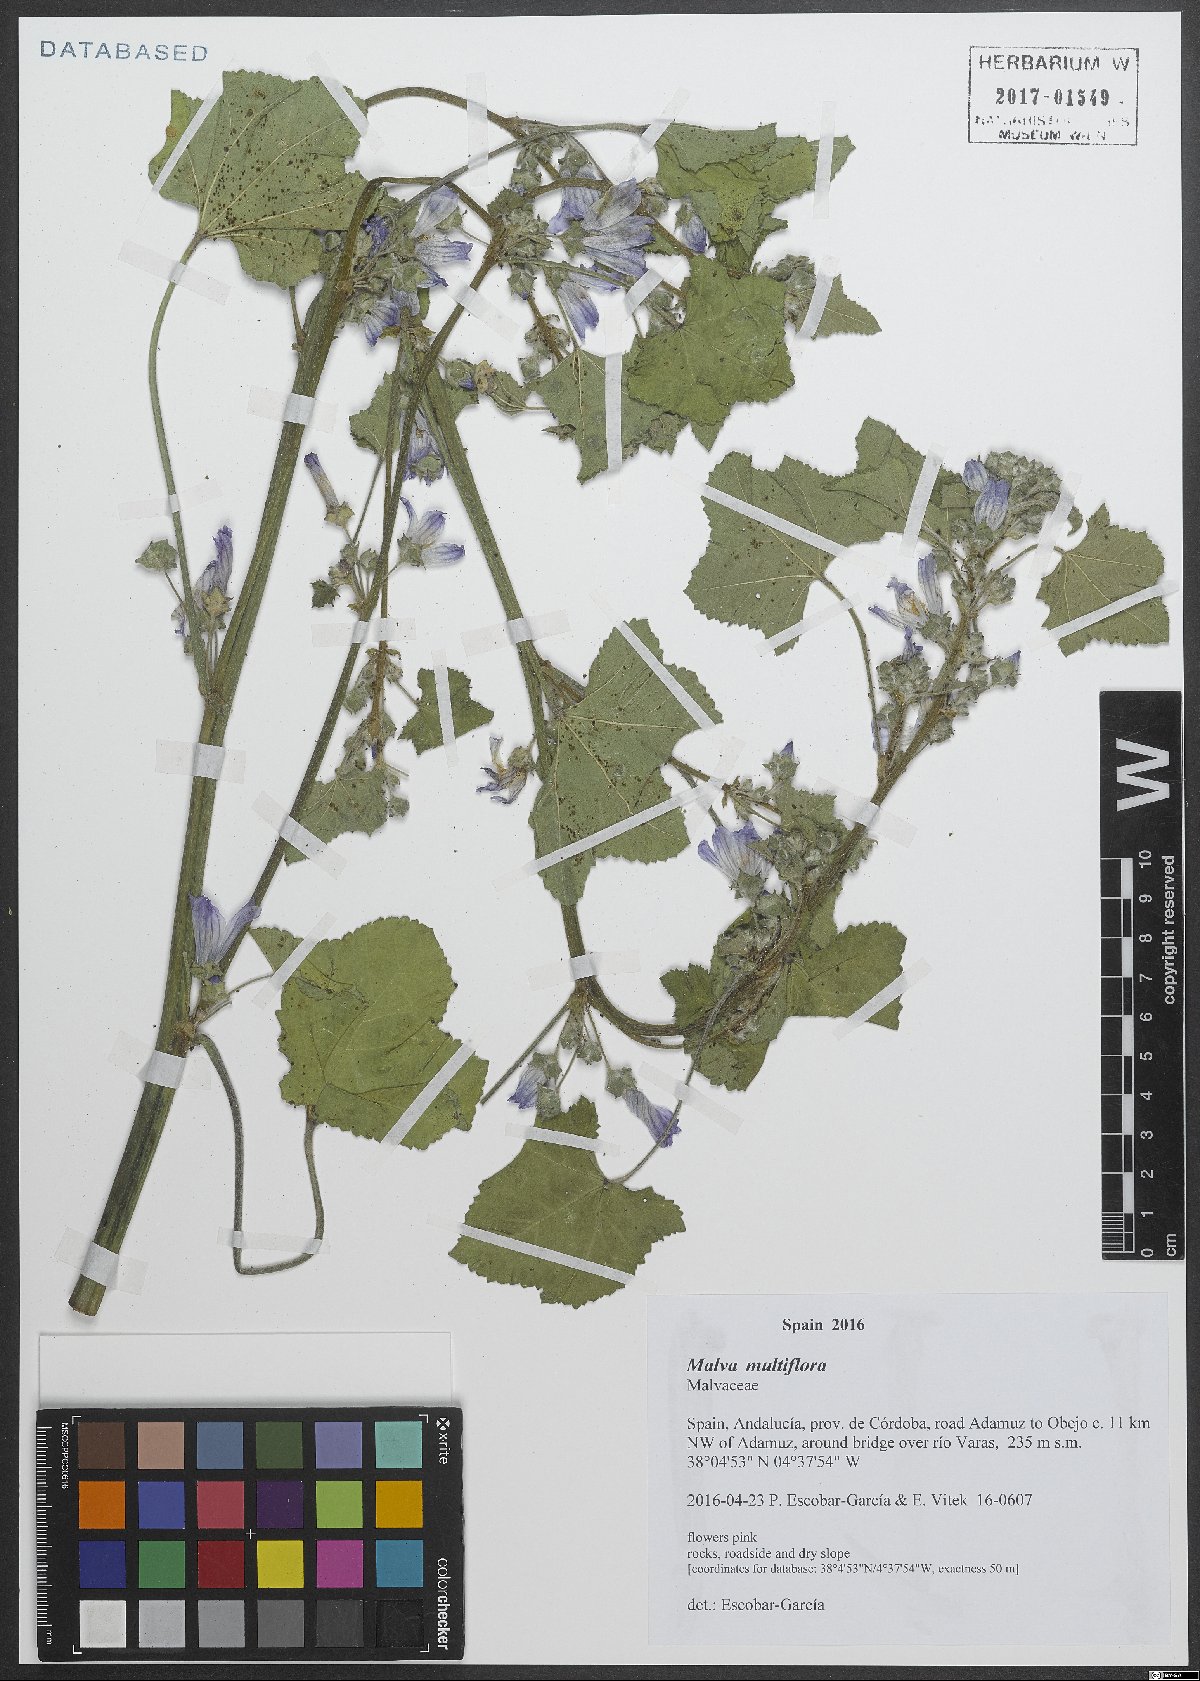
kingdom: Plantae
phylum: Tracheophyta
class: Magnoliopsida
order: Malvales
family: Malvaceae
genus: Malva
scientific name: Malva multiflora
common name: Cheeseweed
